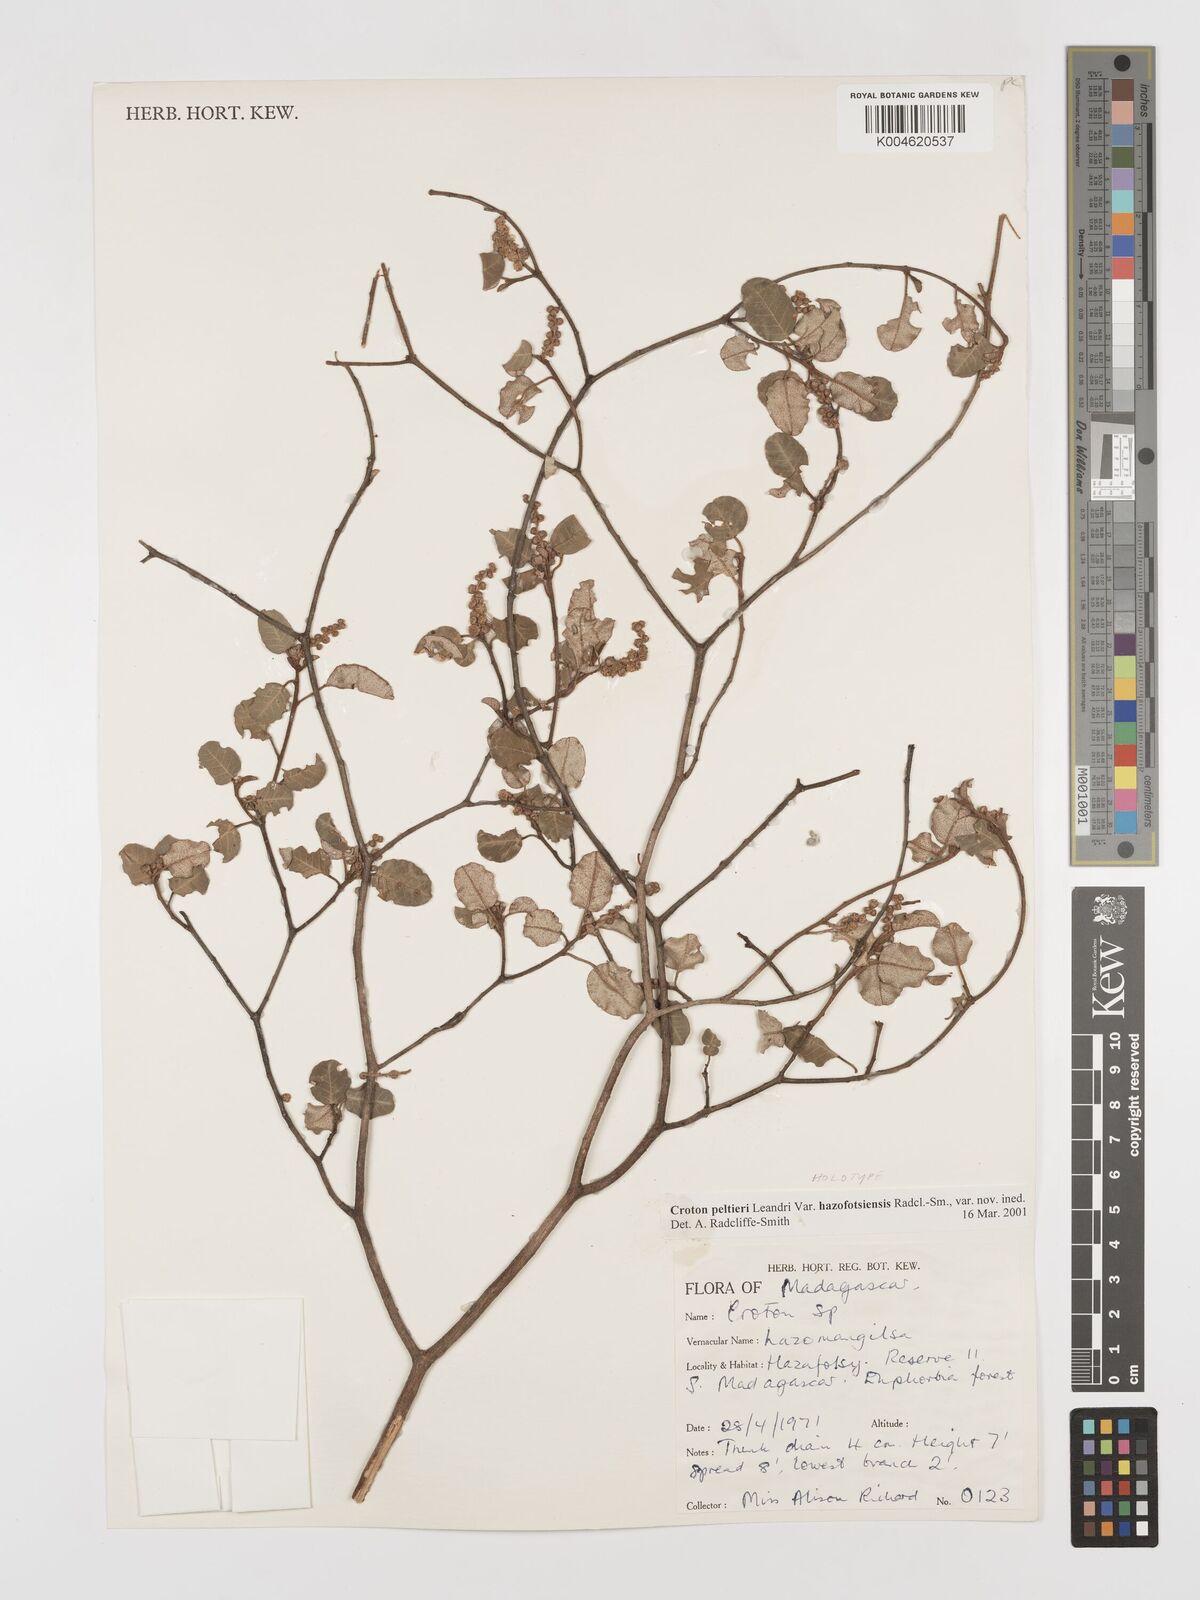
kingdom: Plantae
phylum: Tracheophyta
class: Magnoliopsida
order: Malpighiales
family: Euphorbiaceae
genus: Croton
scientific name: Croton miarensis
